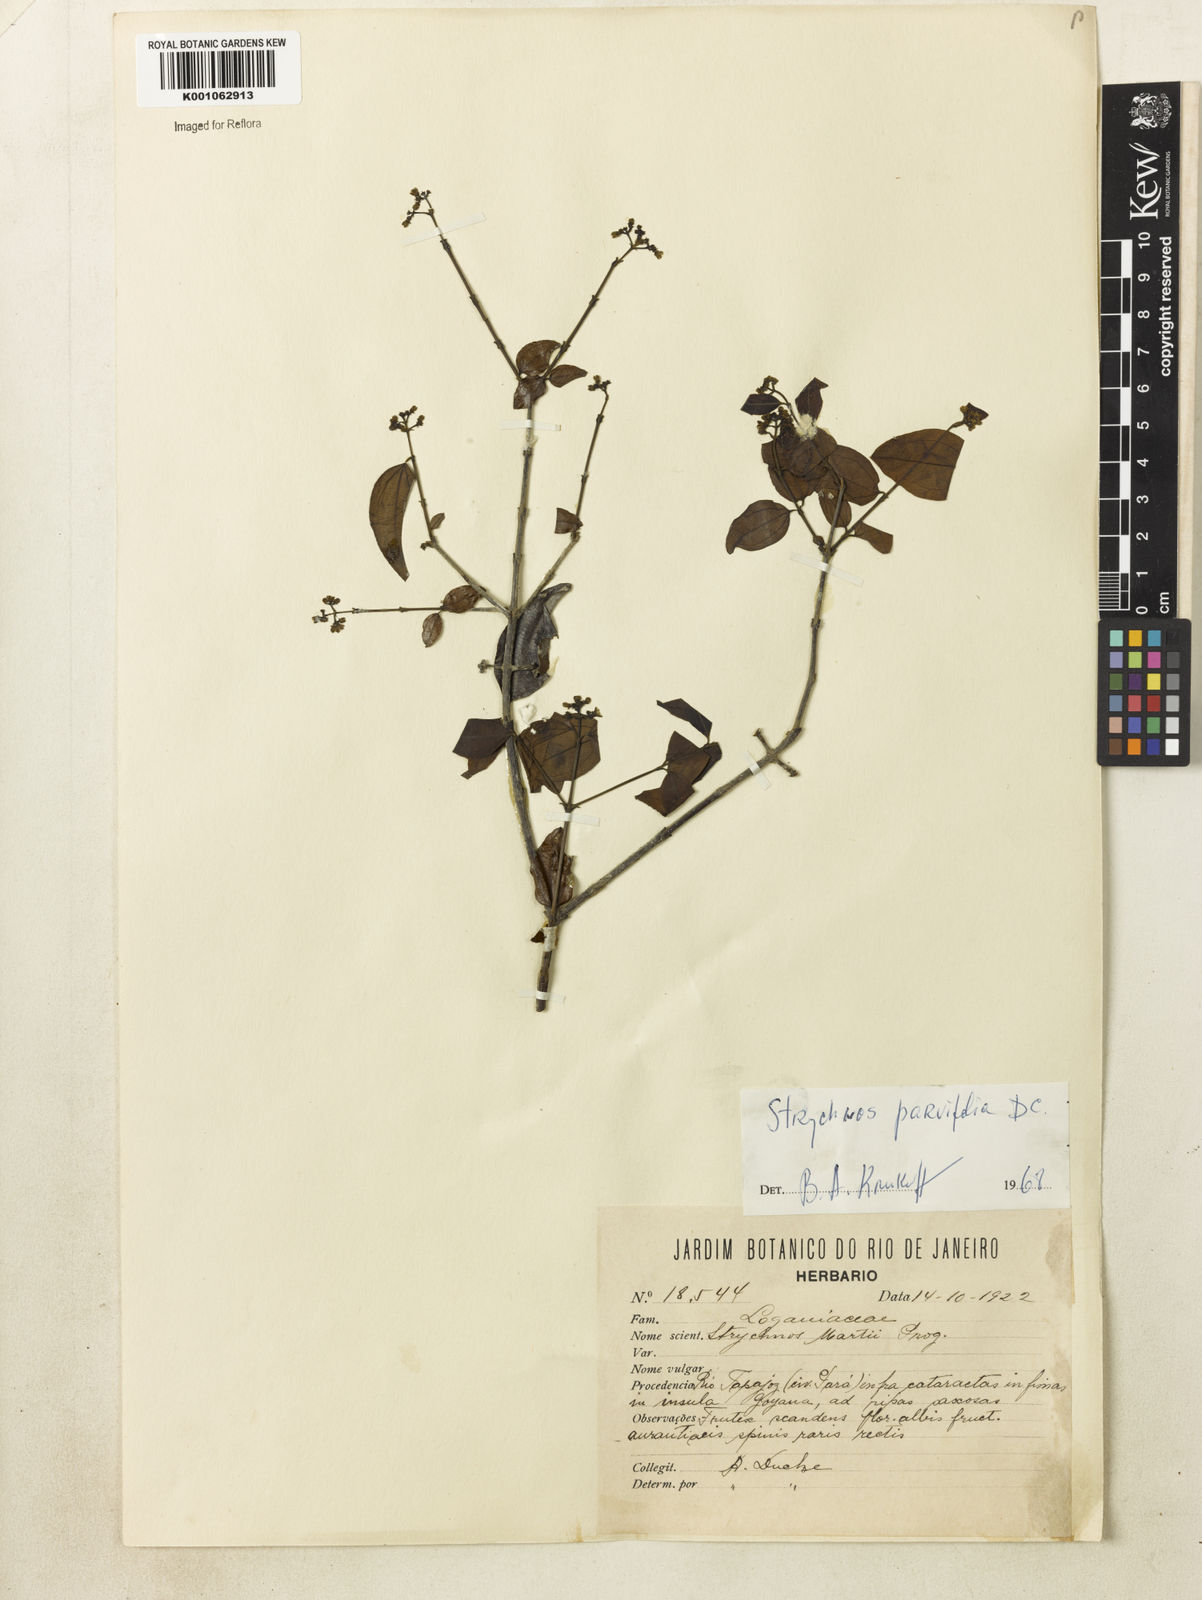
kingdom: Plantae
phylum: Tracheophyta
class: Magnoliopsida
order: Gentianales
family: Loganiaceae
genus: Strychnos
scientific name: Strychnos parvifolia
